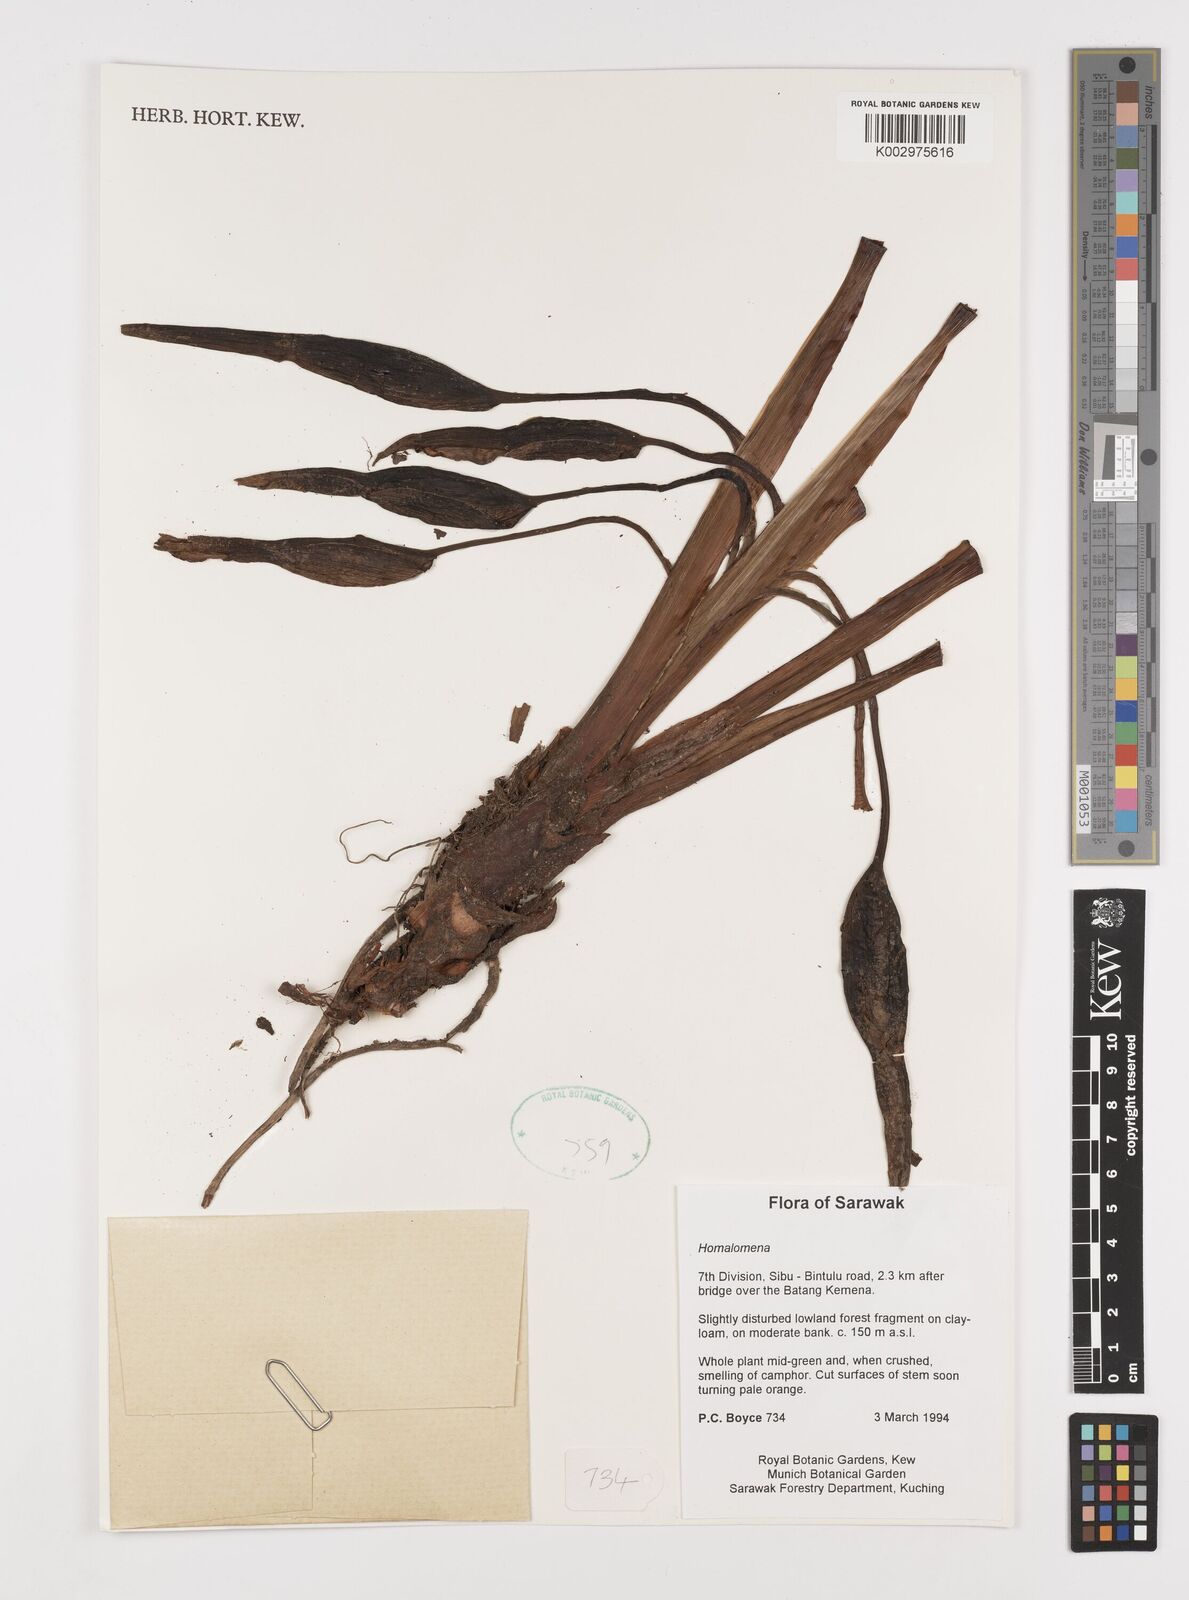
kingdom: Plantae
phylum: Tracheophyta
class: Liliopsida
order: Alismatales
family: Araceae
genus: Homalomena
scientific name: Homalomena
